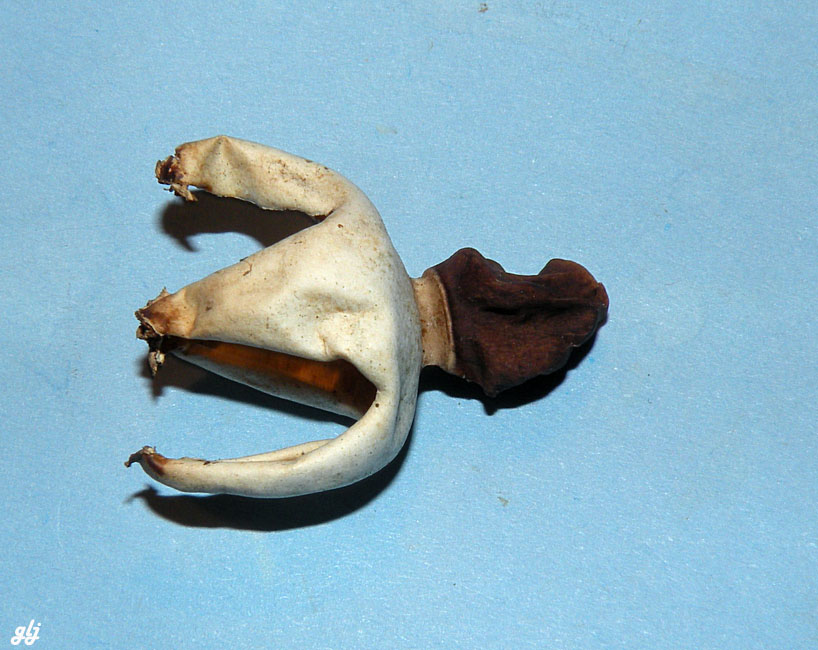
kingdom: Fungi
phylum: Basidiomycota
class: Agaricomycetes
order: Geastrales
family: Geastraceae
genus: Geastrum
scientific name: Geastrum quadrifidum
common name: firfliget stjernebold
